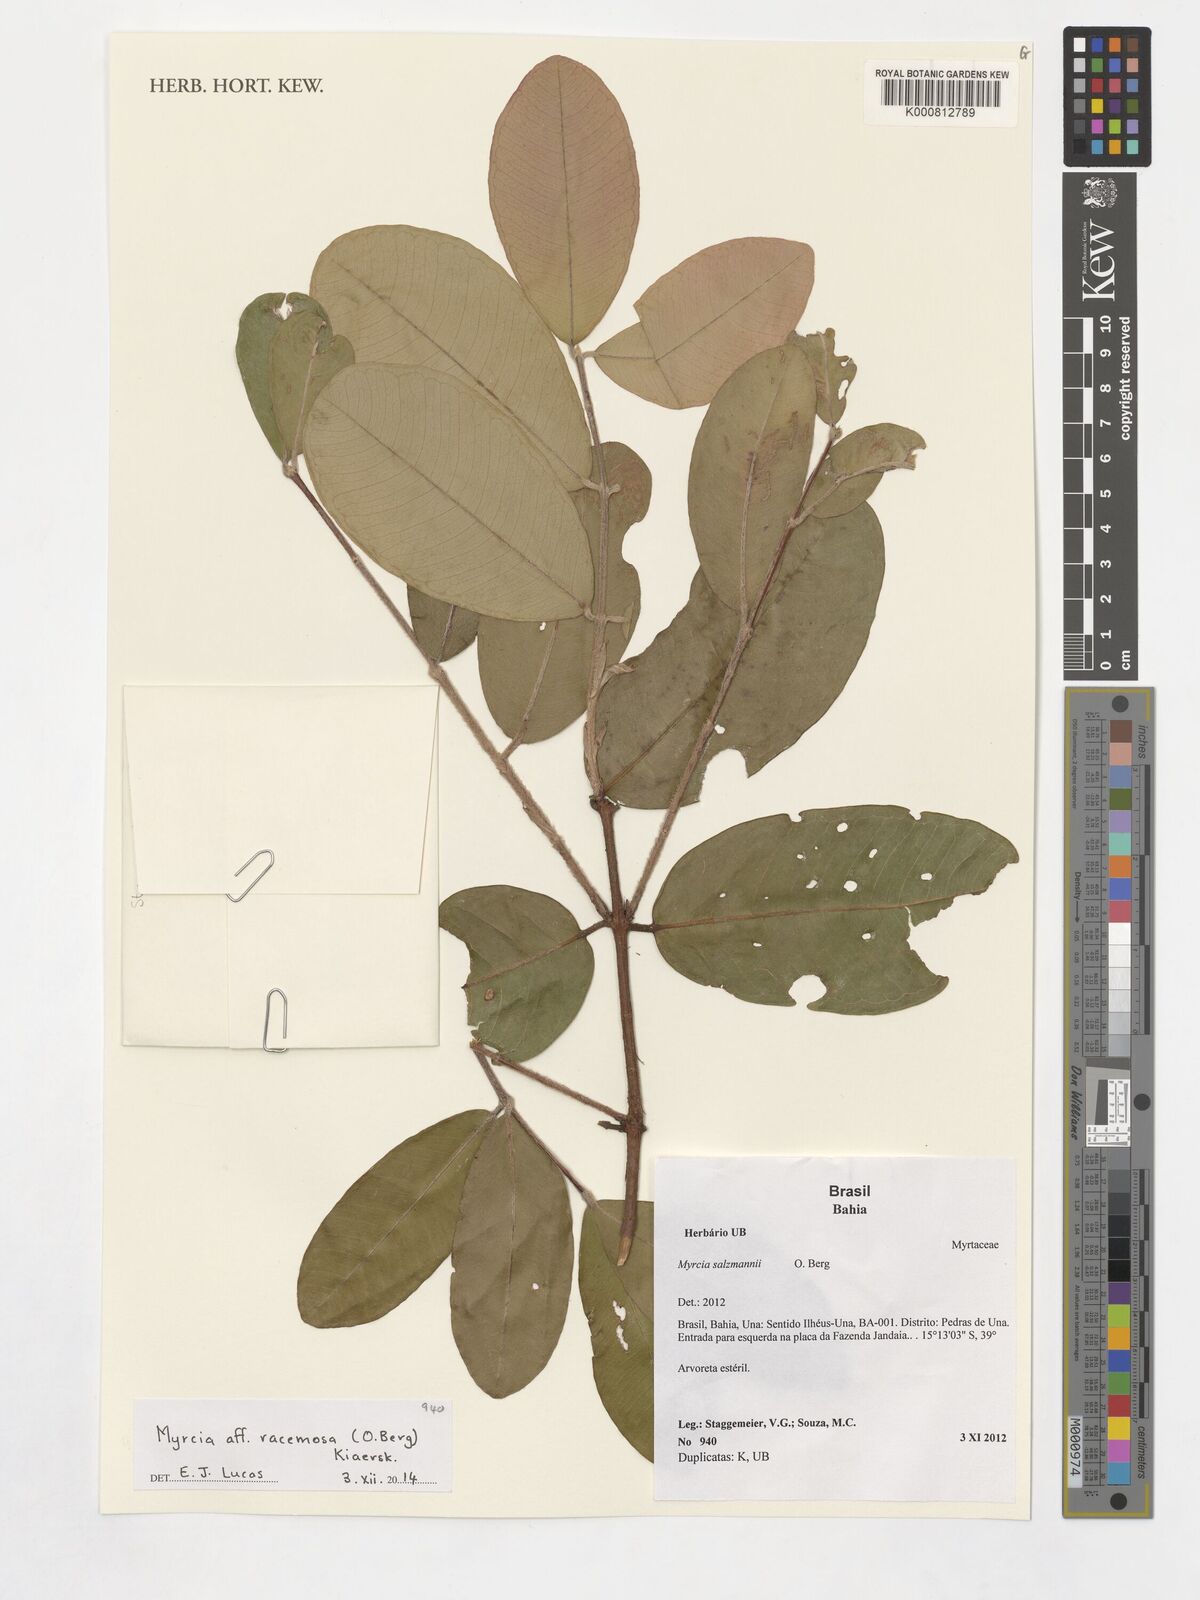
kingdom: Plantae
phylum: Tracheophyta
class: Magnoliopsida
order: Myrtales
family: Myrtaceae
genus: Myrcia
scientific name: Myrcia racemosa
